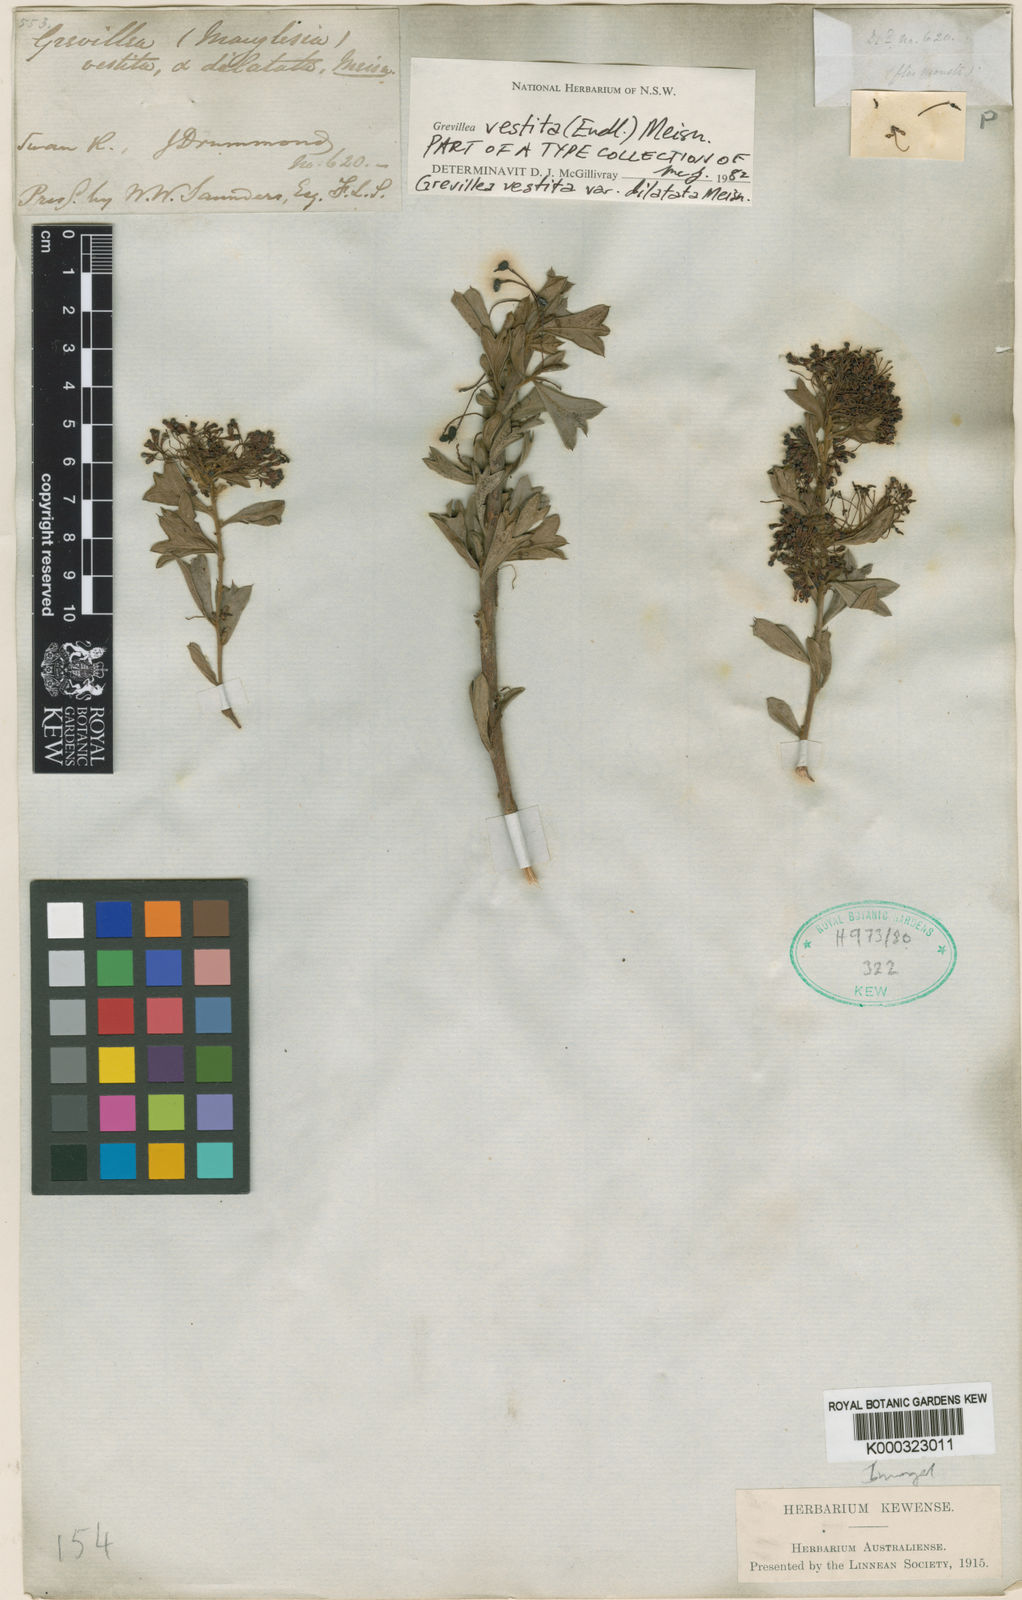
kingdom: Plantae
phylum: Tracheophyta
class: Magnoliopsida
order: Proteales
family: Proteaceae
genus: Grevillea
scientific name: Grevillea vestita
